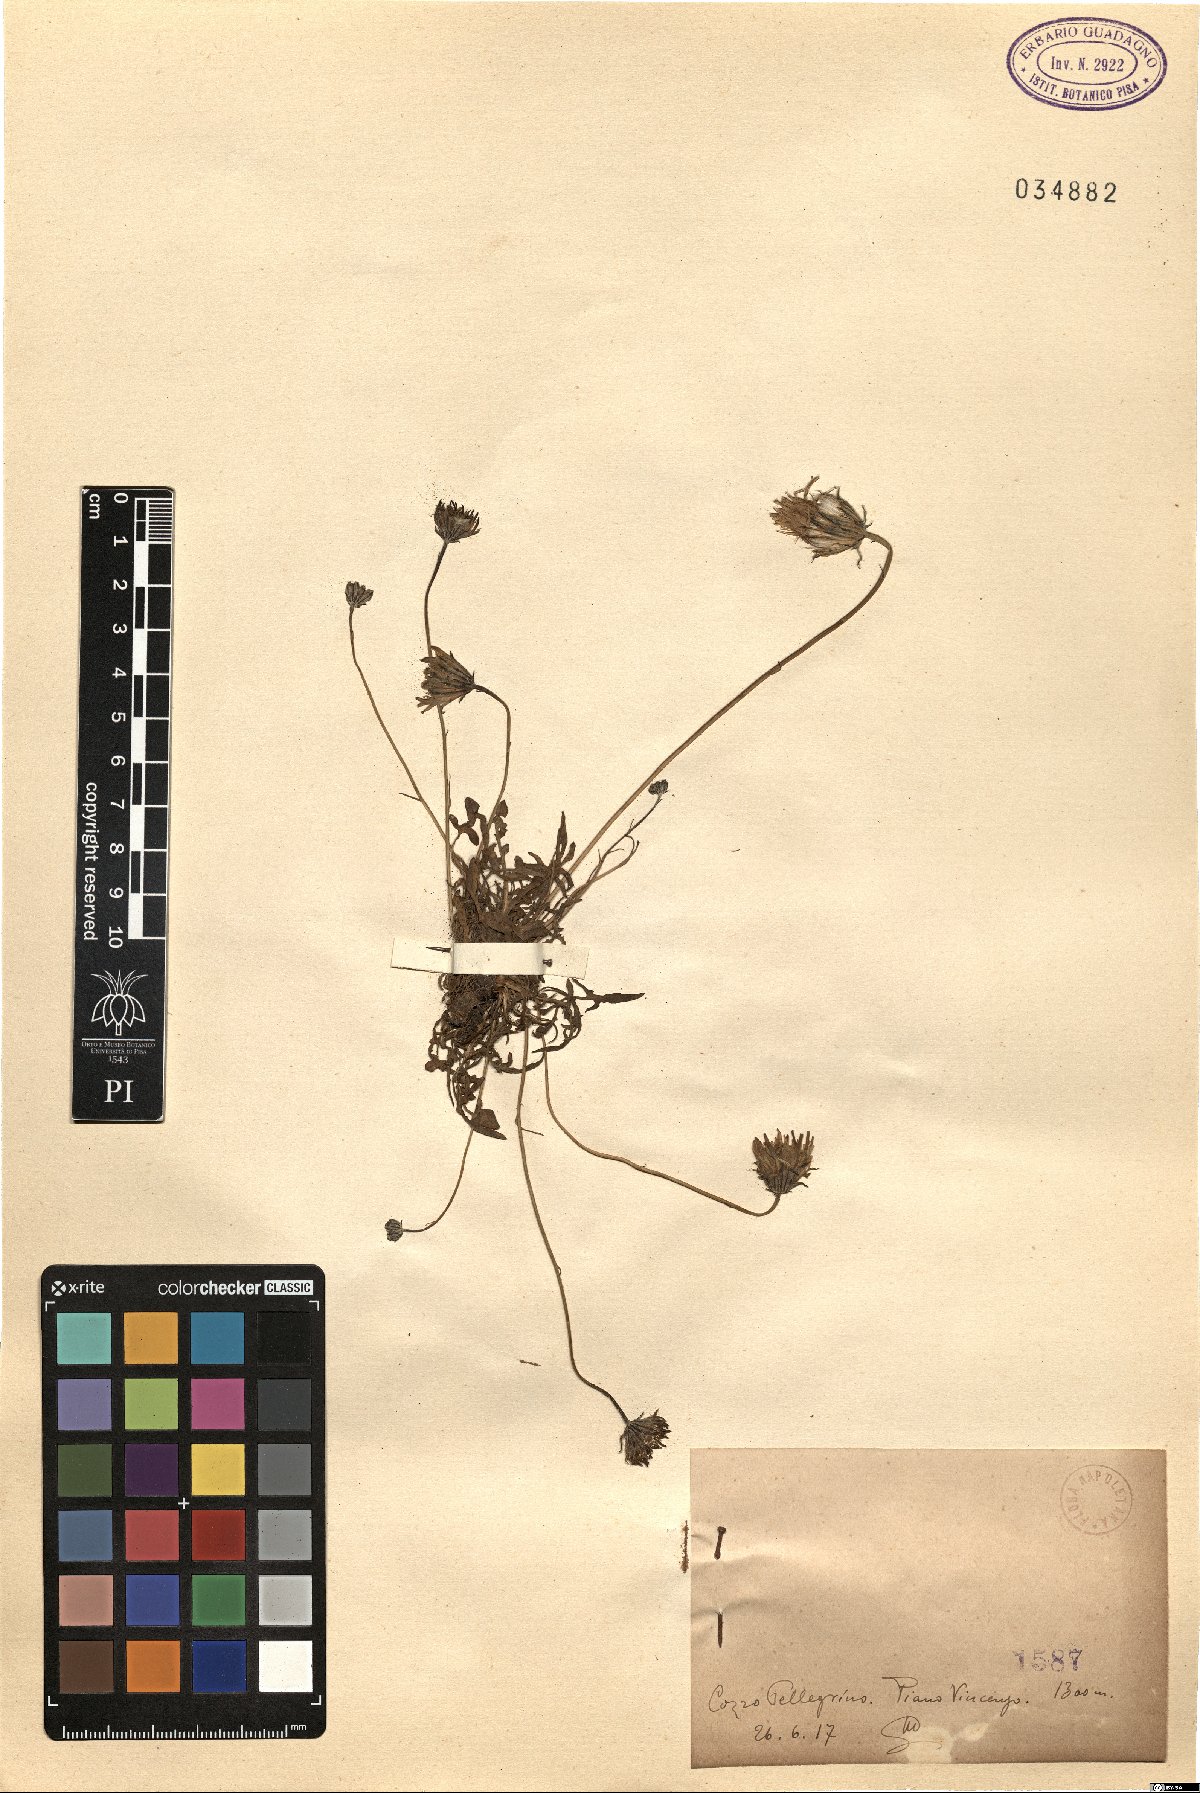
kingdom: Plantae
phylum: Tracheophyta
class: Magnoliopsida
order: Asterales
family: Asteraceae
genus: Hypochaeris
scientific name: Hypochaeris
